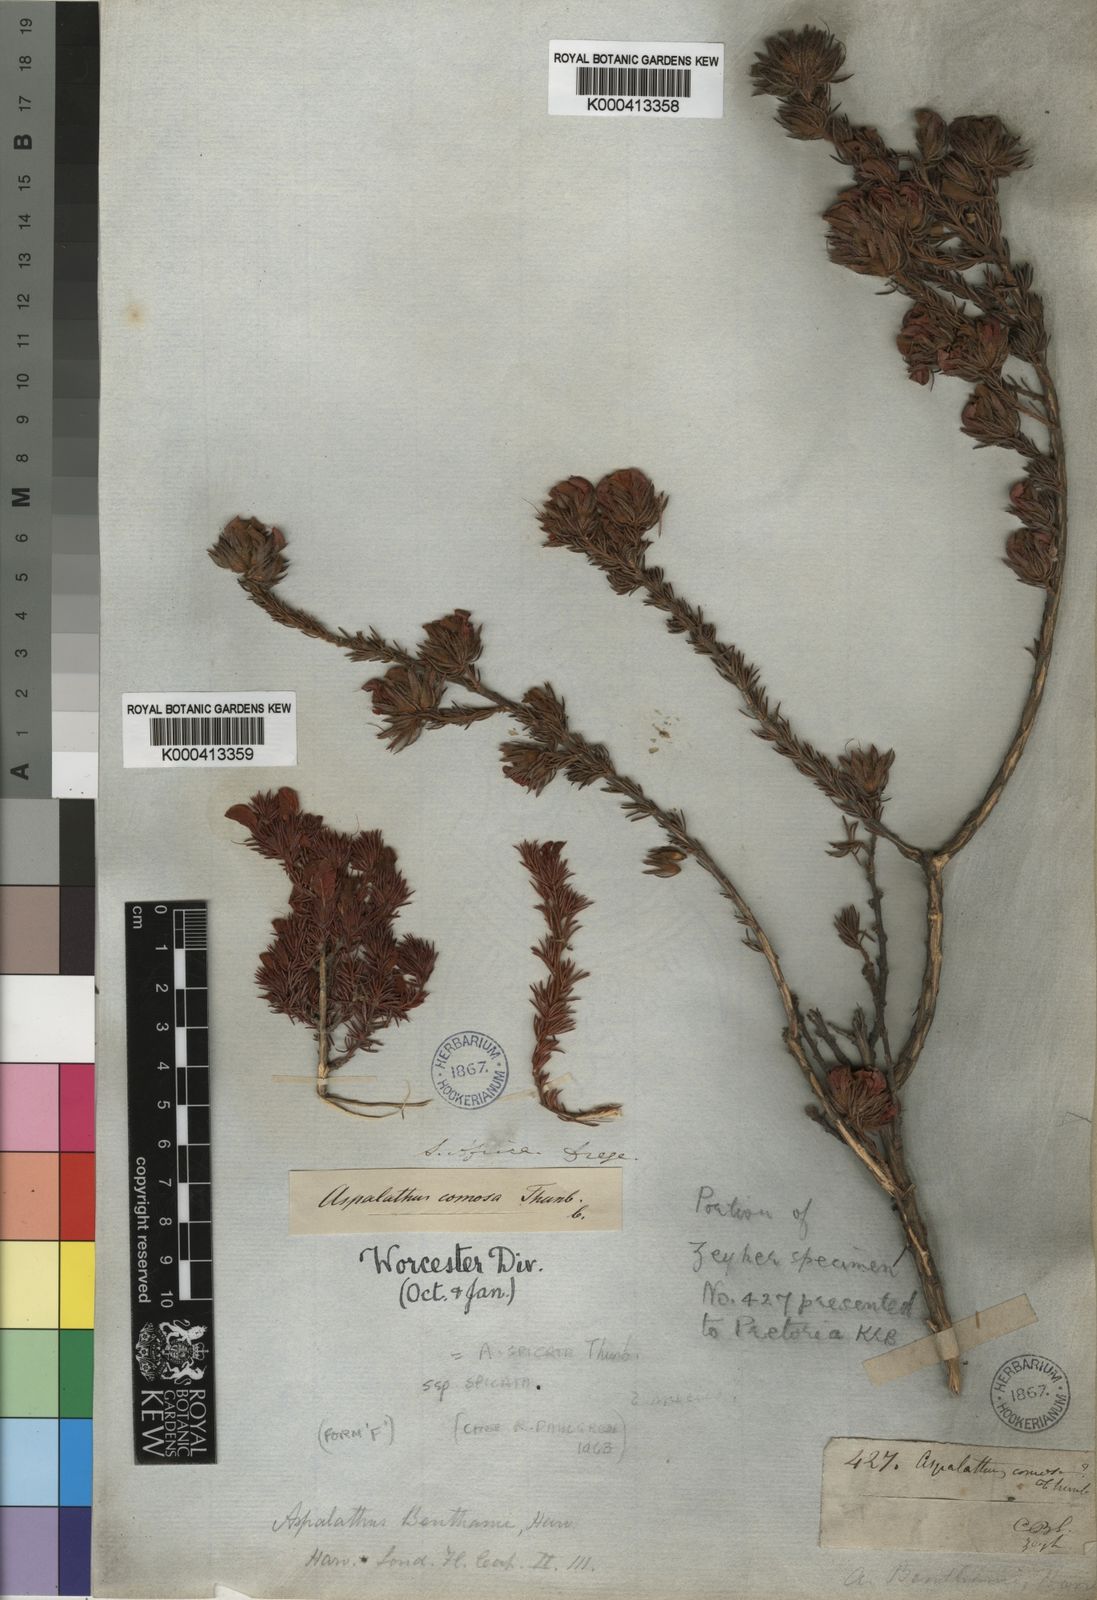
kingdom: Plantae
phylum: Tracheophyta
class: Magnoliopsida
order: Fabales
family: Fabaceae
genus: Aspalathus
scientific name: Aspalathus spicata
